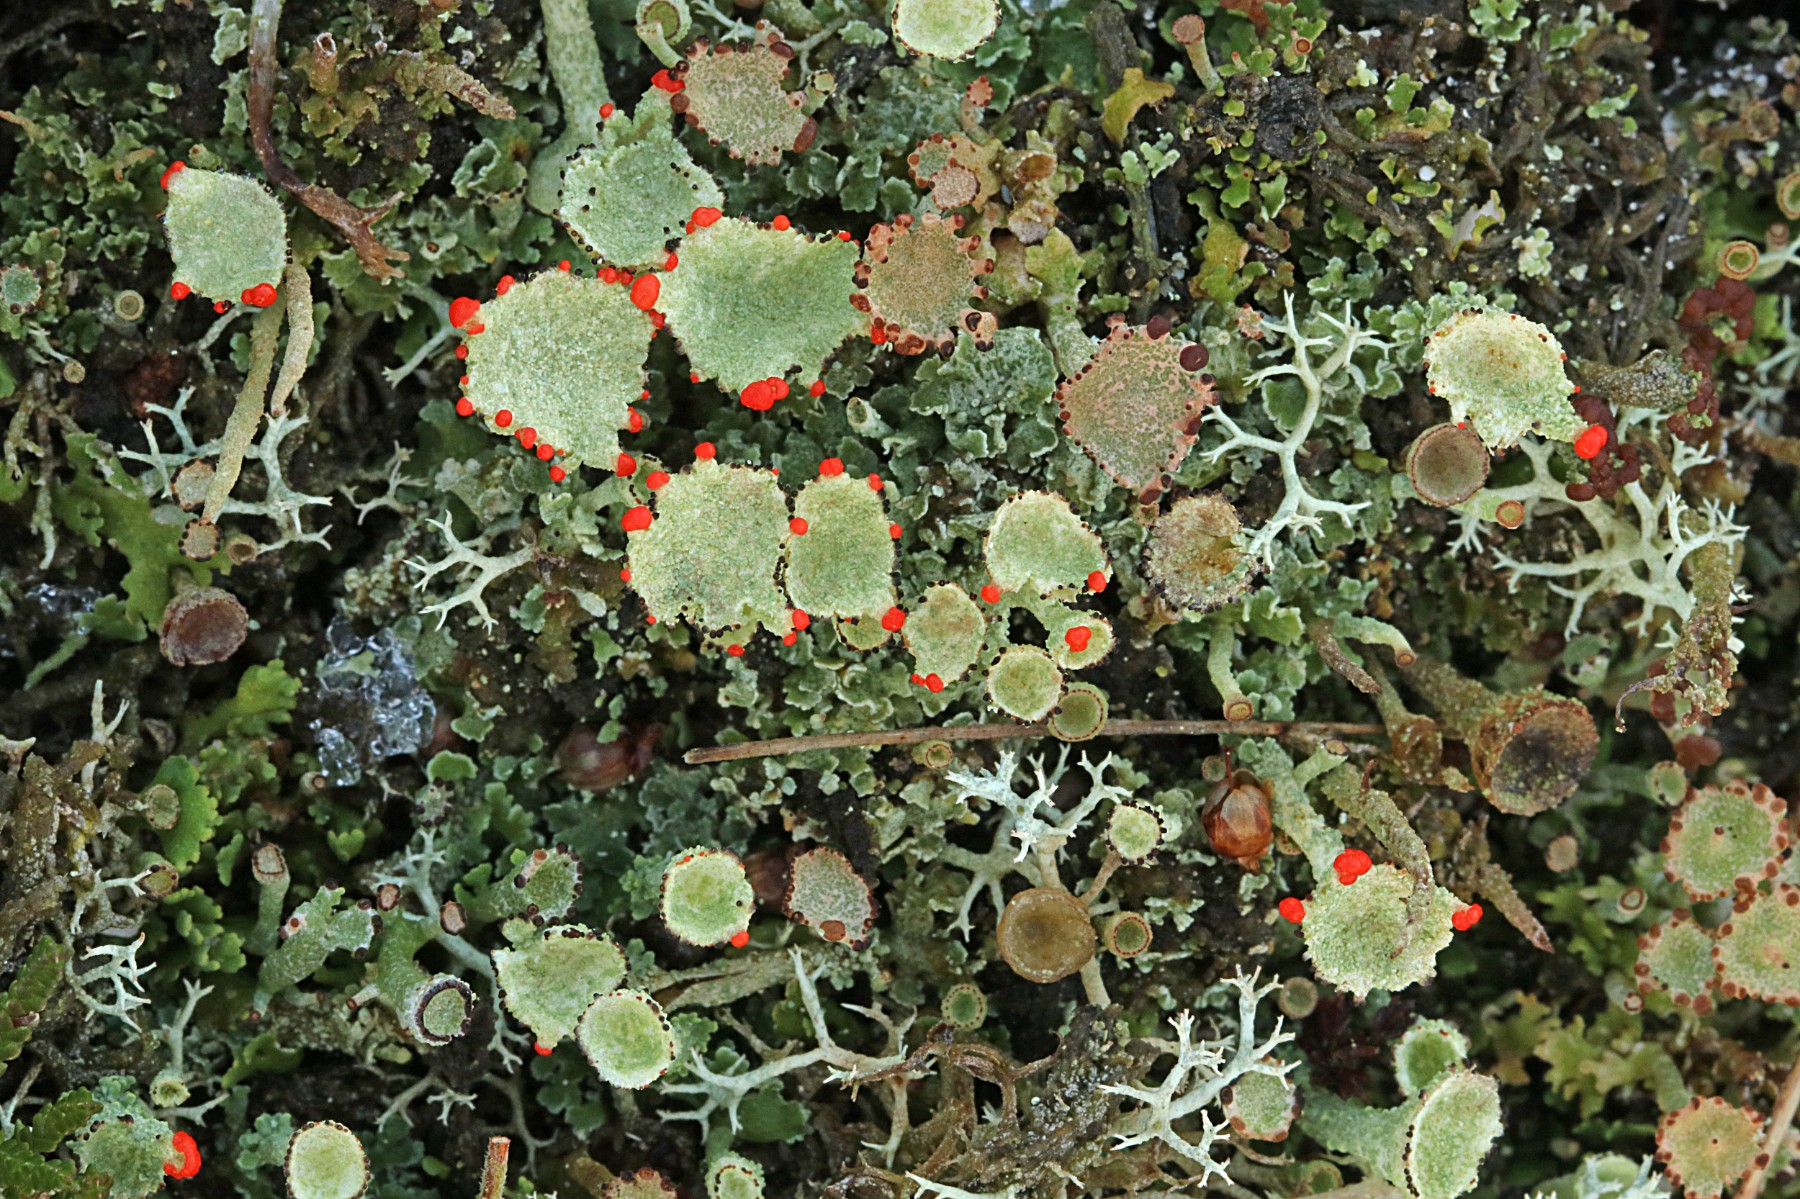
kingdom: Fungi
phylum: Ascomycota
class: Lecanoromycetes
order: Lecanorales
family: Cladoniaceae
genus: Cladonia
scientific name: Cladonia diversa
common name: rød bægerlav
